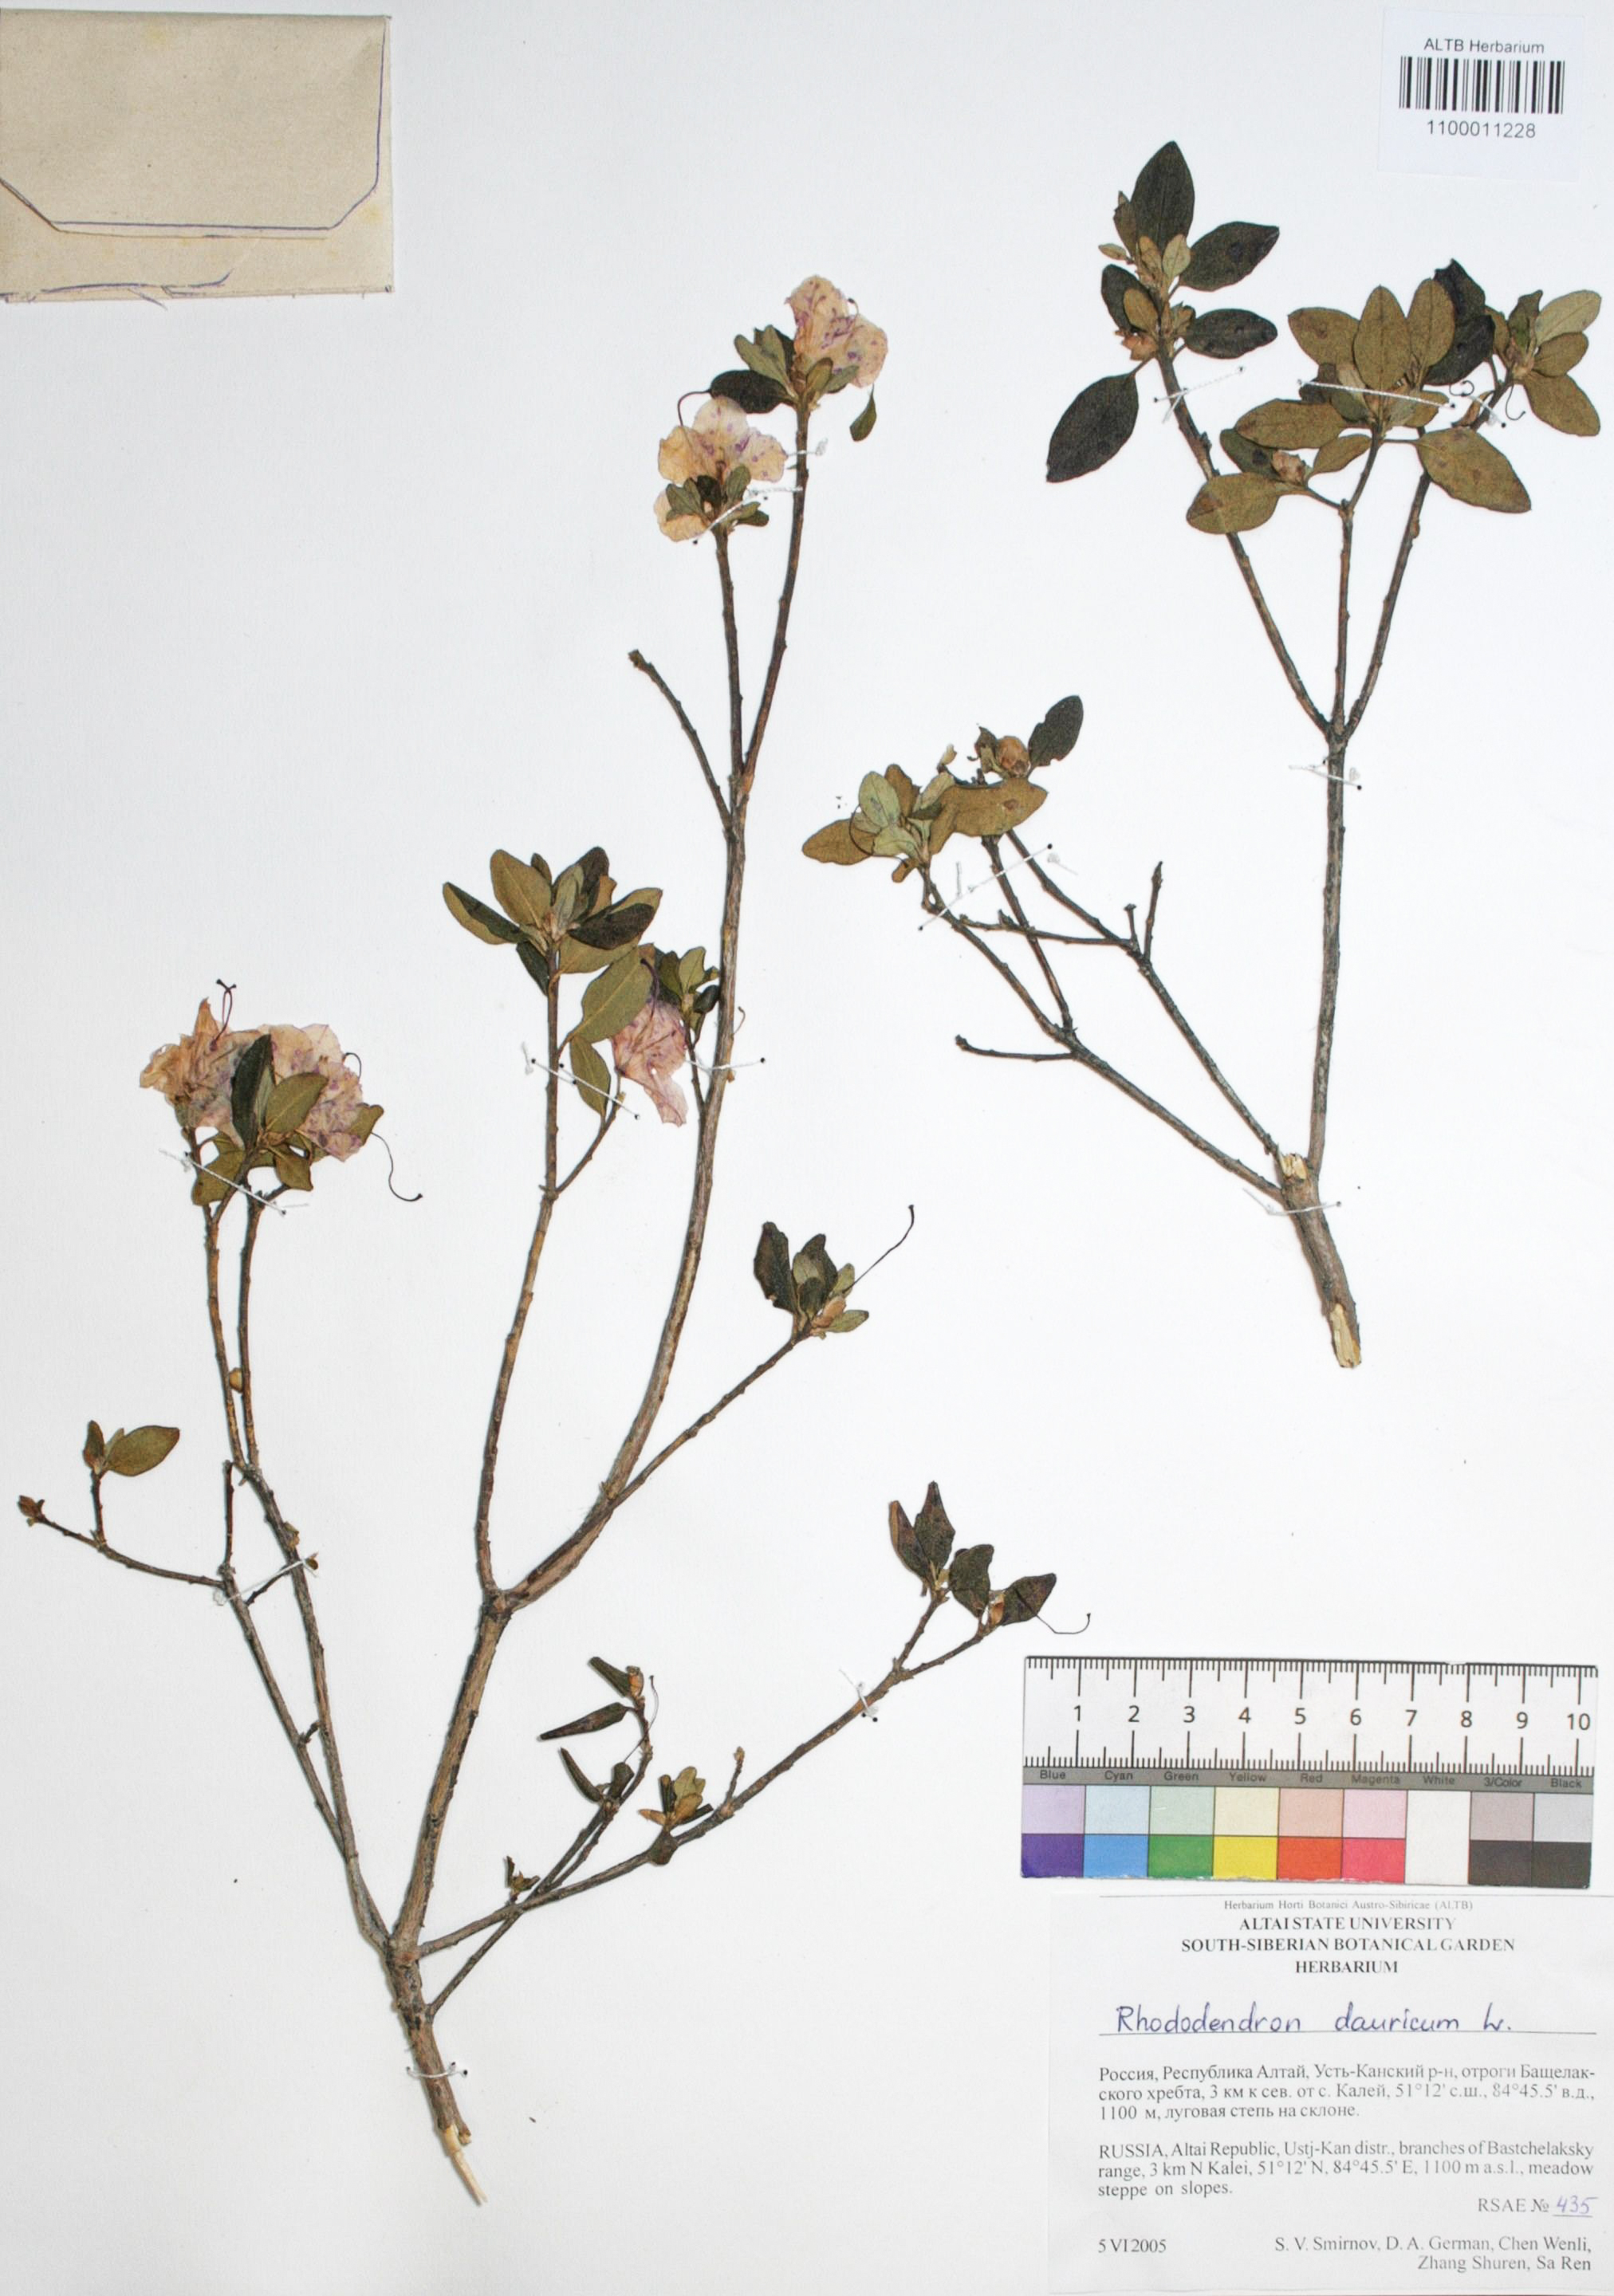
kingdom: Plantae
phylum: Tracheophyta
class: Magnoliopsida
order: Ericales
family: Ericaceae
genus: Rhododendron
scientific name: Rhododendron dahuricum
